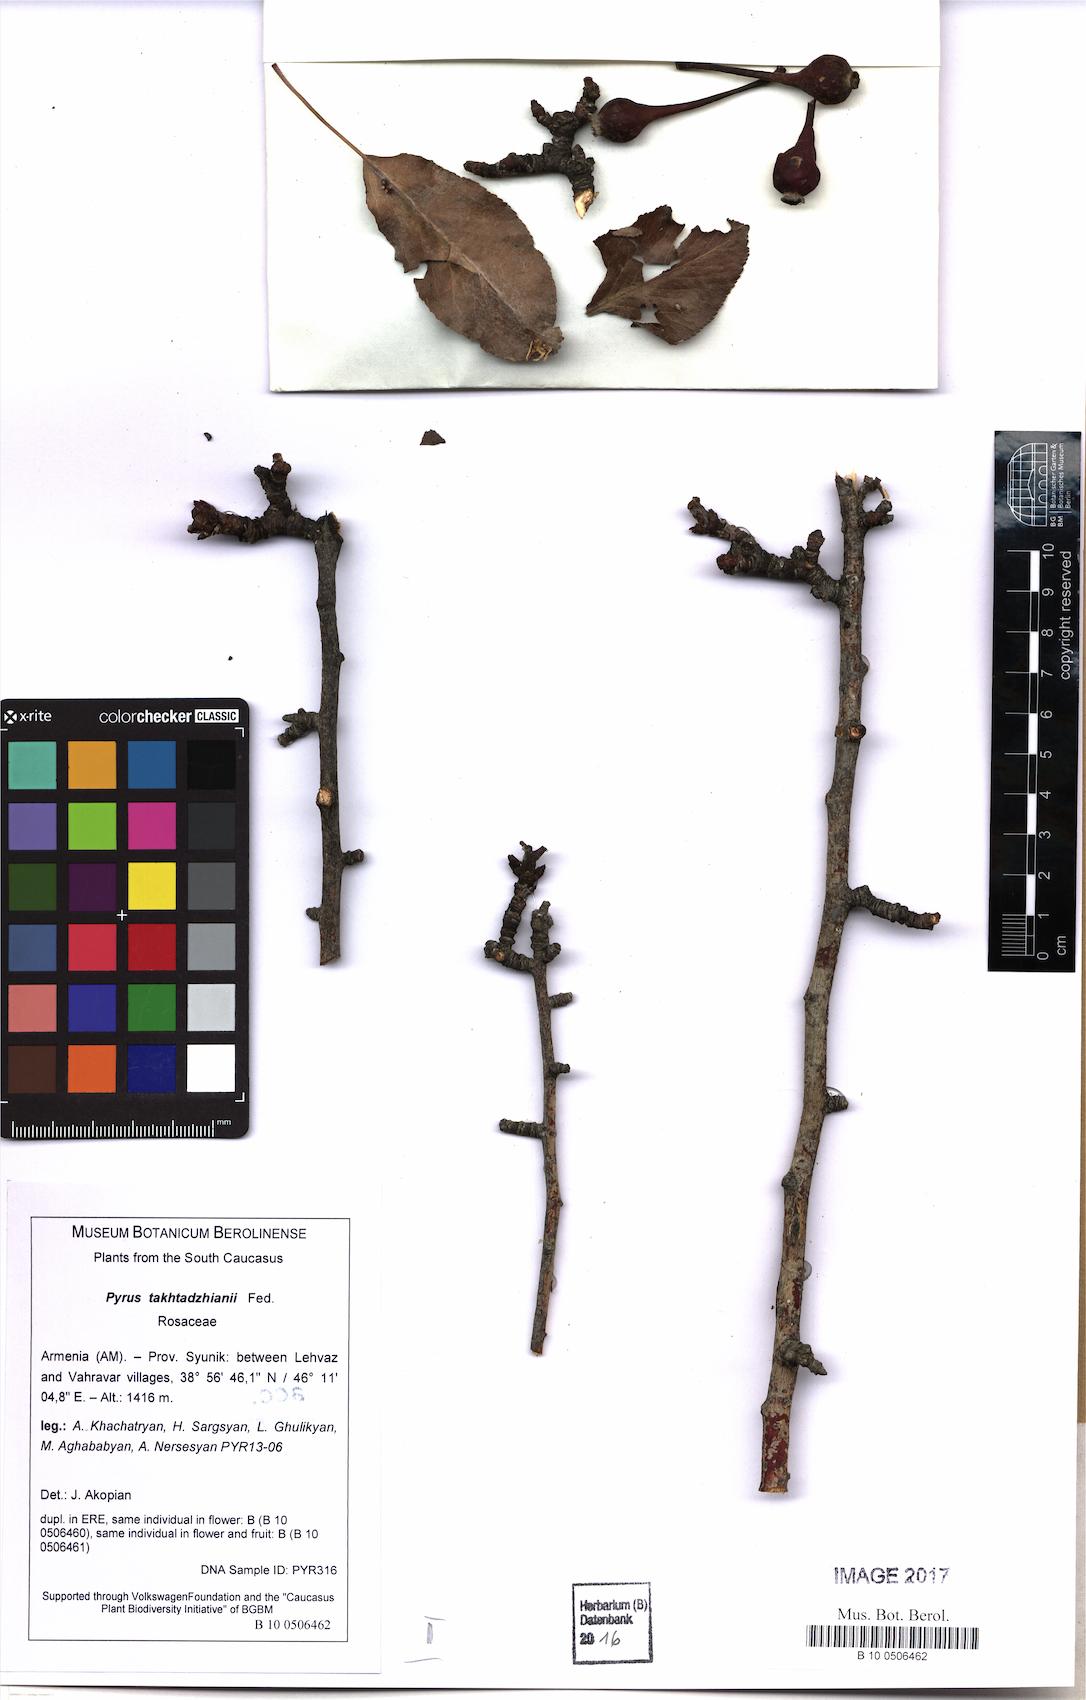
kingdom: Plantae
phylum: Tracheophyta
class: Magnoliopsida
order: Rosales
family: Rosaceae
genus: Pyrus
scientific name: Pyrus takhtadzhianii
